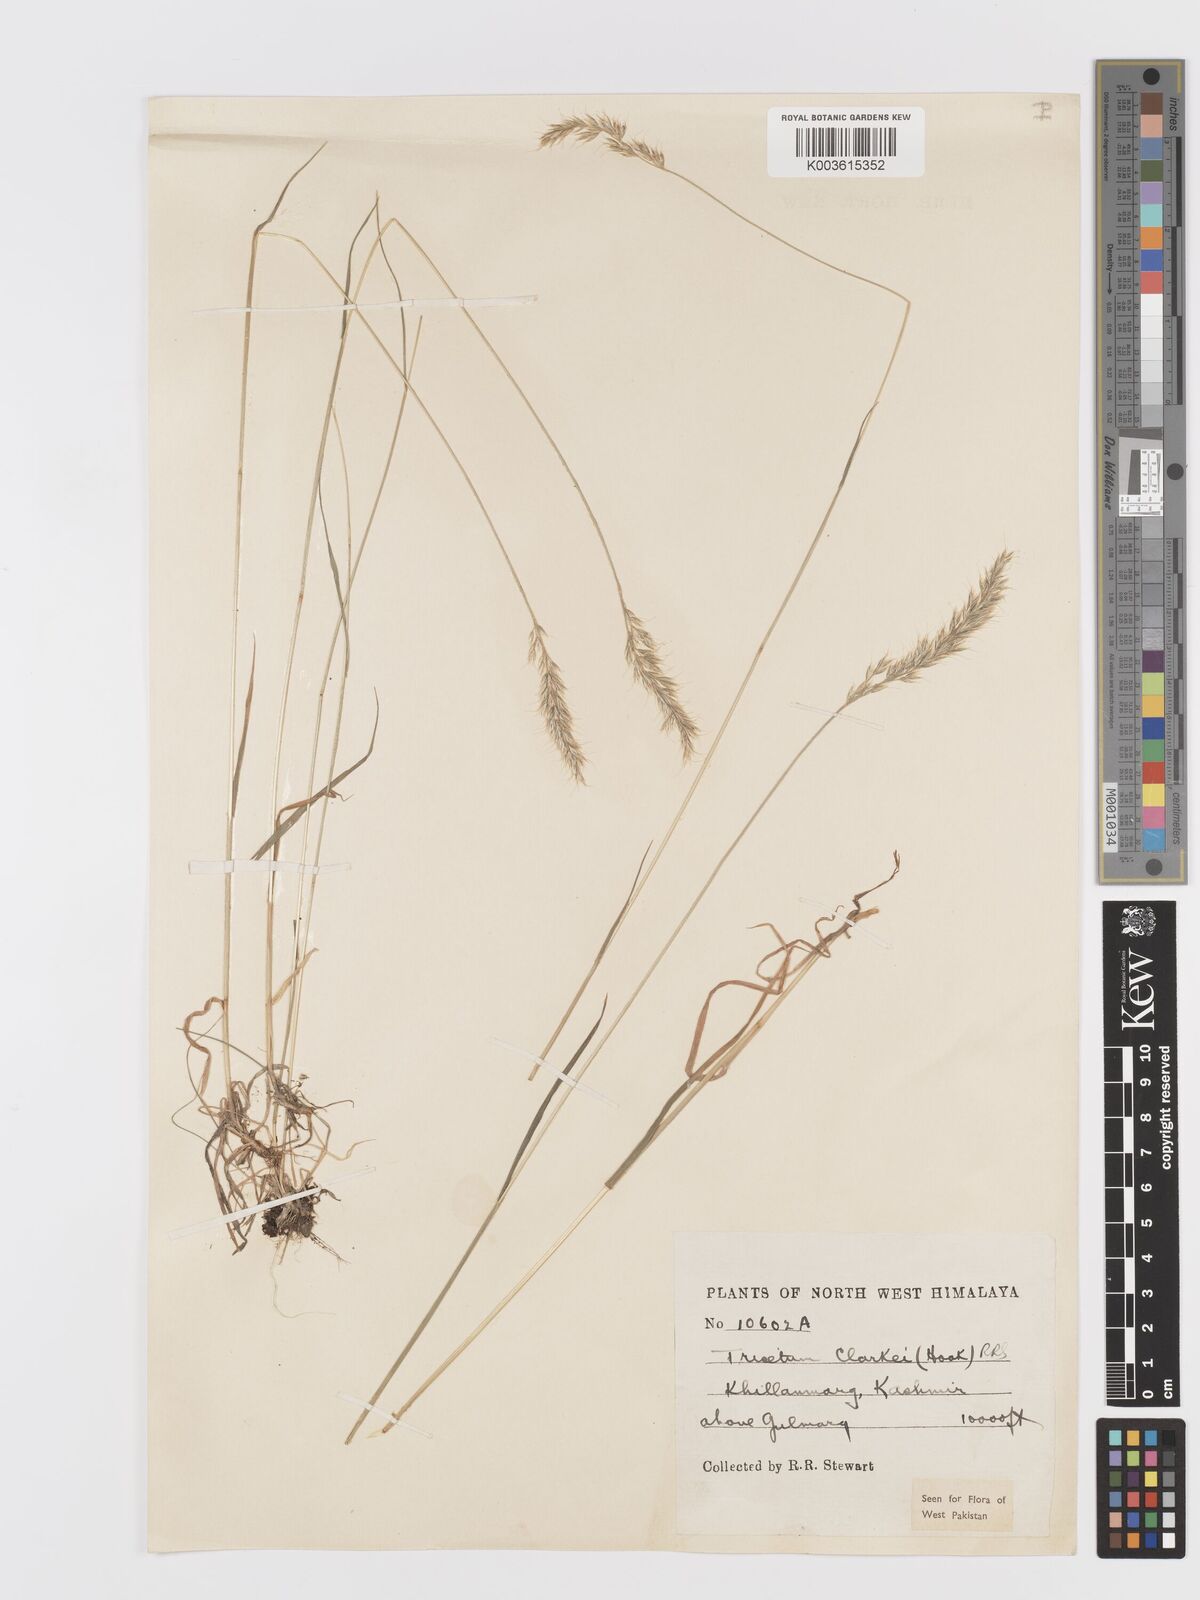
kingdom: Plantae
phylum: Tracheophyta
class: Liliopsida
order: Poales
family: Poaceae
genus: Trisetum
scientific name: Trisetum clarkei
